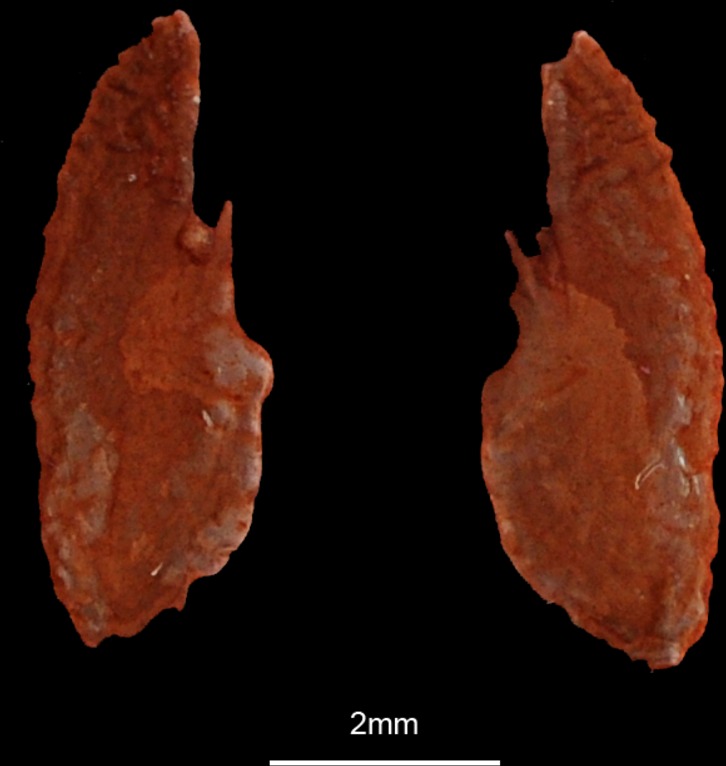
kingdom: Animalia
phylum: Chordata
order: Perciformes
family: Carangidae
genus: Carangoides
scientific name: Carangoides gymnostethus
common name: Bludger
